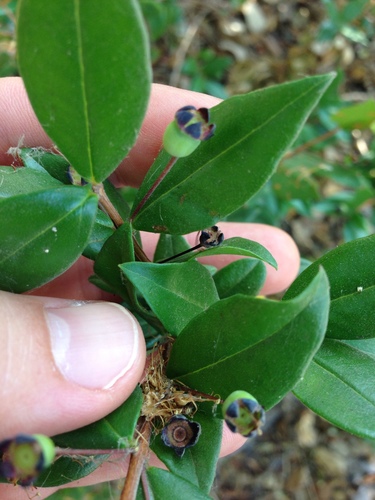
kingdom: Plantae
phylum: Tracheophyta
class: Magnoliopsida
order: Myrtales
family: Myrtaceae
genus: Myrtus
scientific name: Myrtus communis
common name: Myrtle
